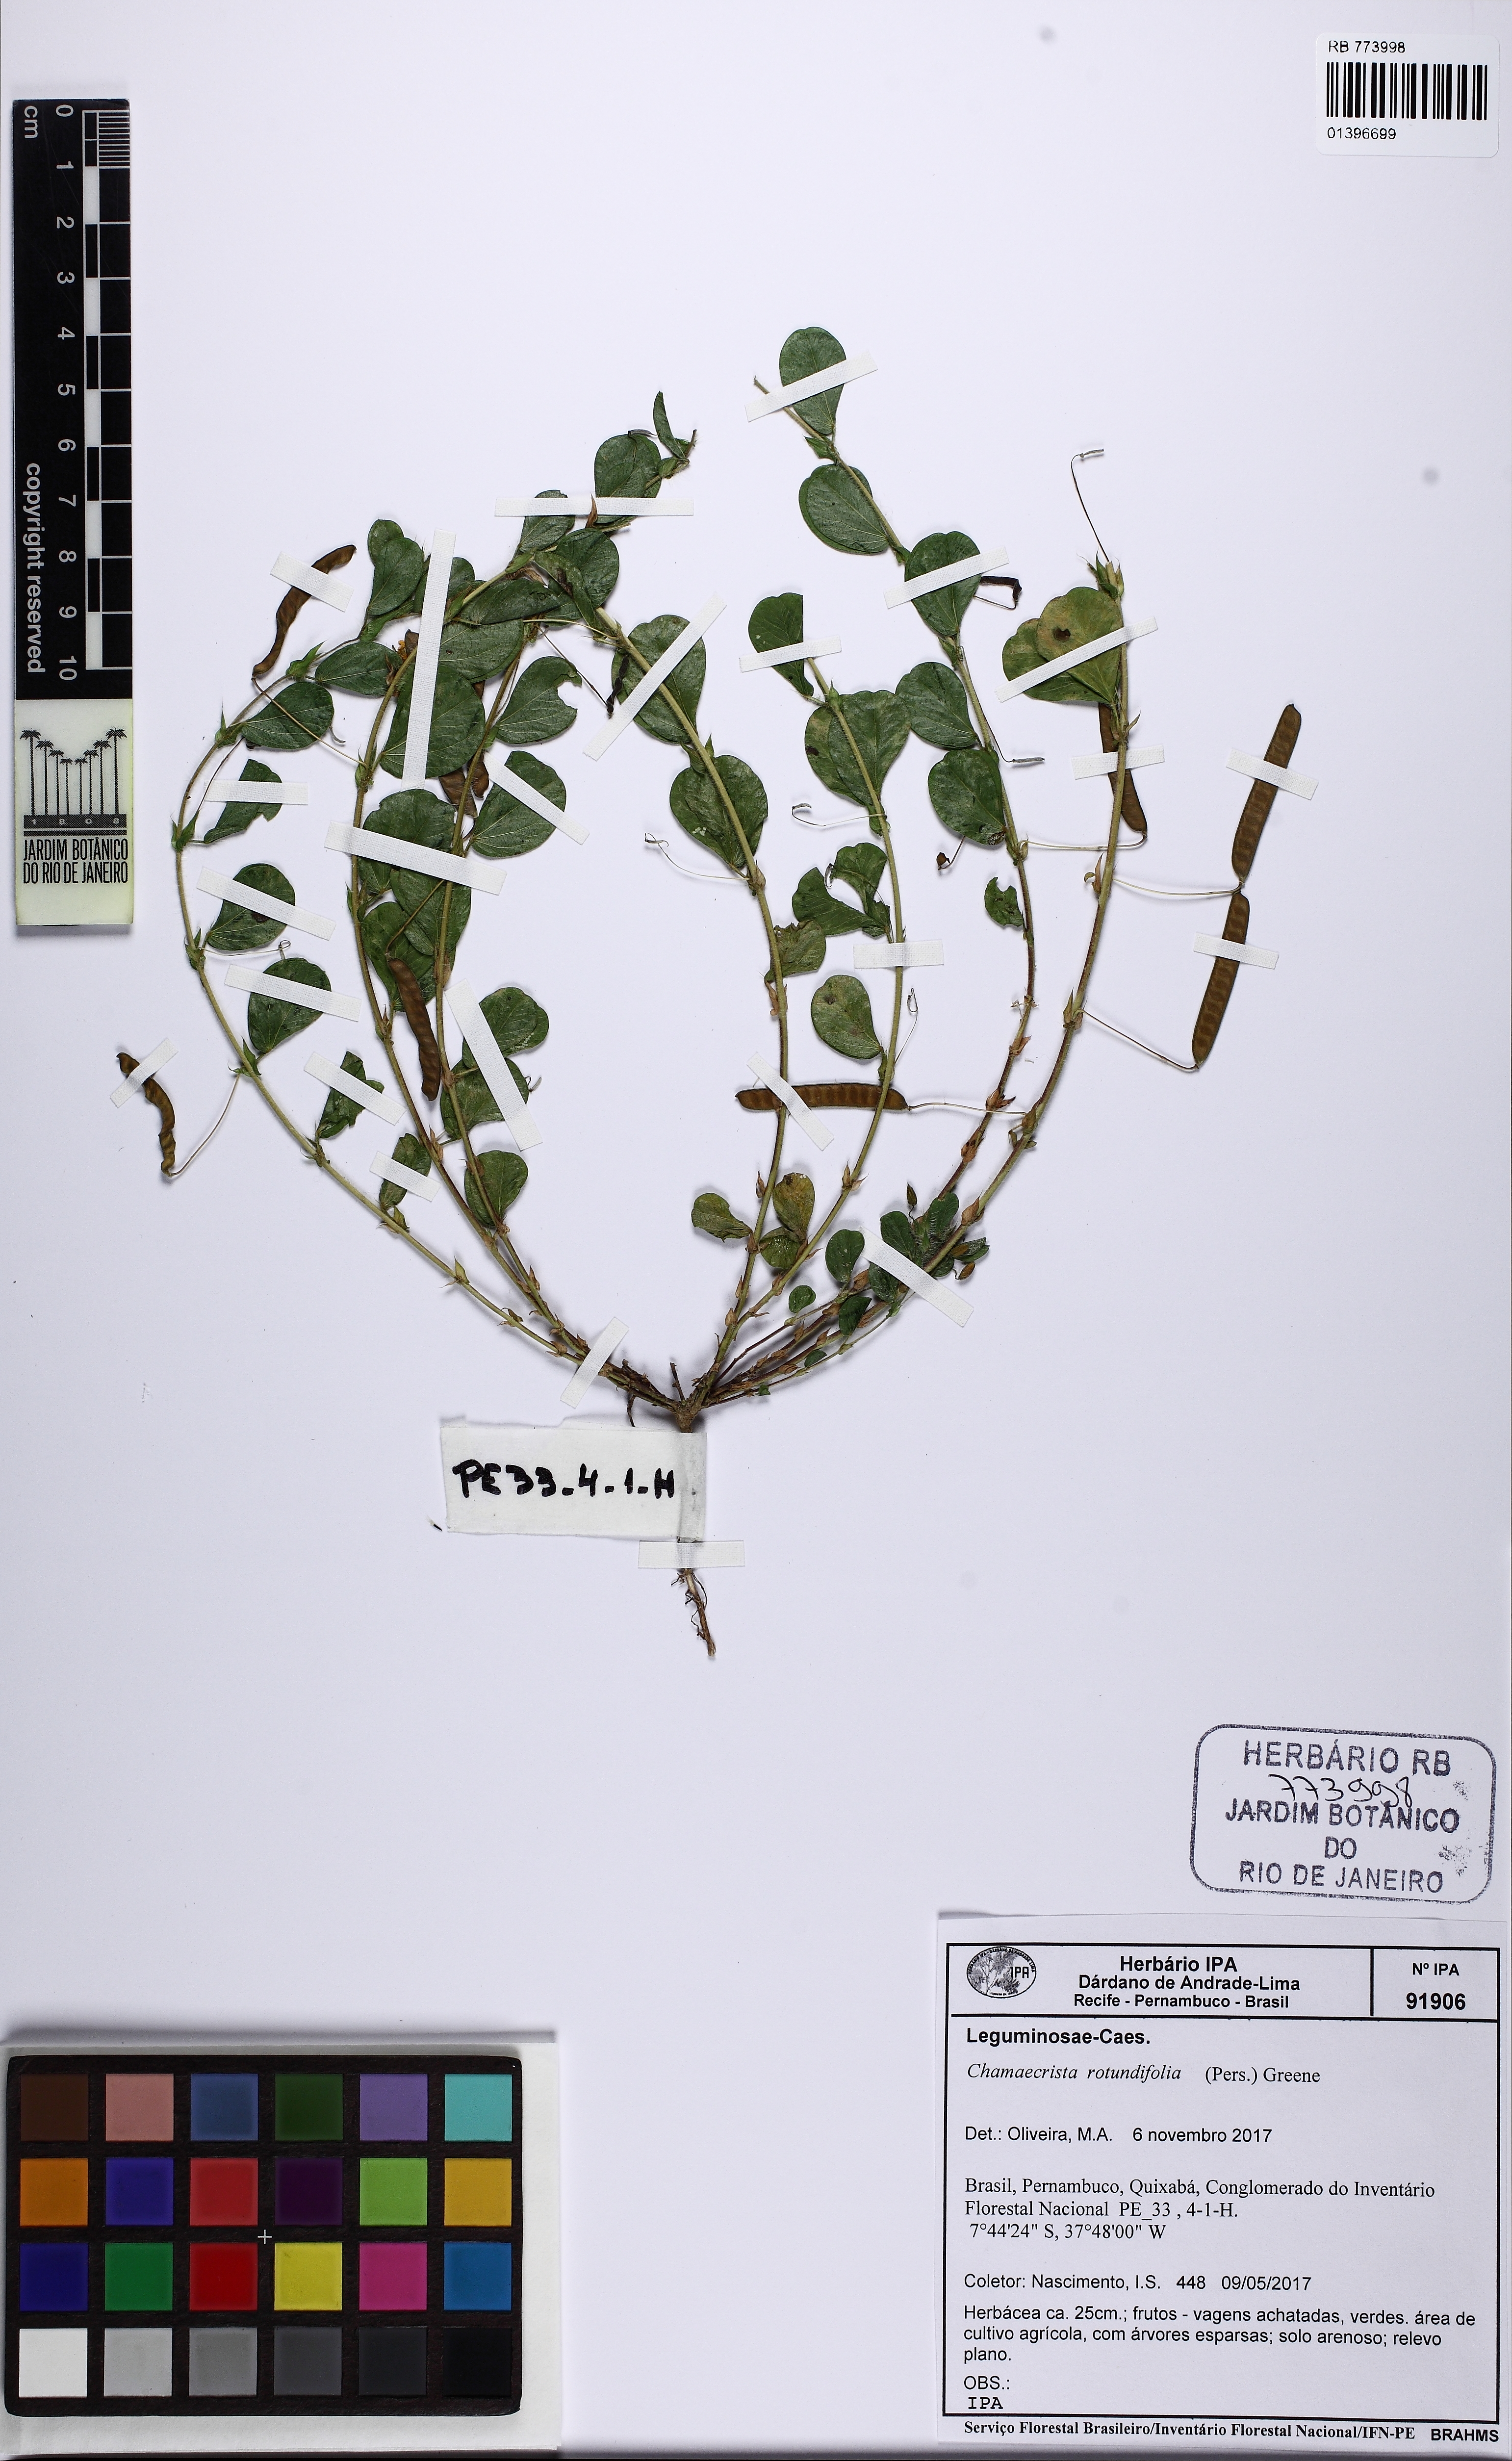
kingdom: Plantae
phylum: Tracheophyta
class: Magnoliopsida
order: Fabales
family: Fabaceae
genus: Chamaecrista
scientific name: Chamaecrista rotundifolia
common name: Round-leaf cassia
